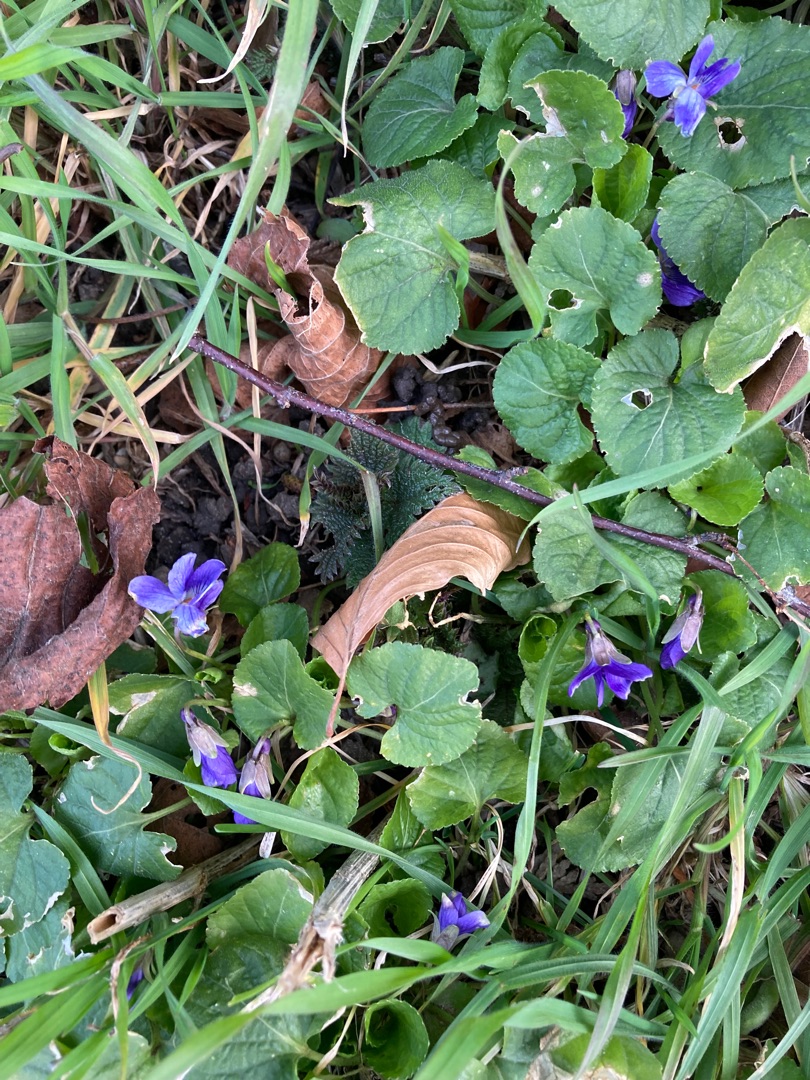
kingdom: Plantae
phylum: Tracheophyta
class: Magnoliopsida
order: Malpighiales
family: Violaceae
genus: Viola
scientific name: Viola odorata
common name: Marts-viol
